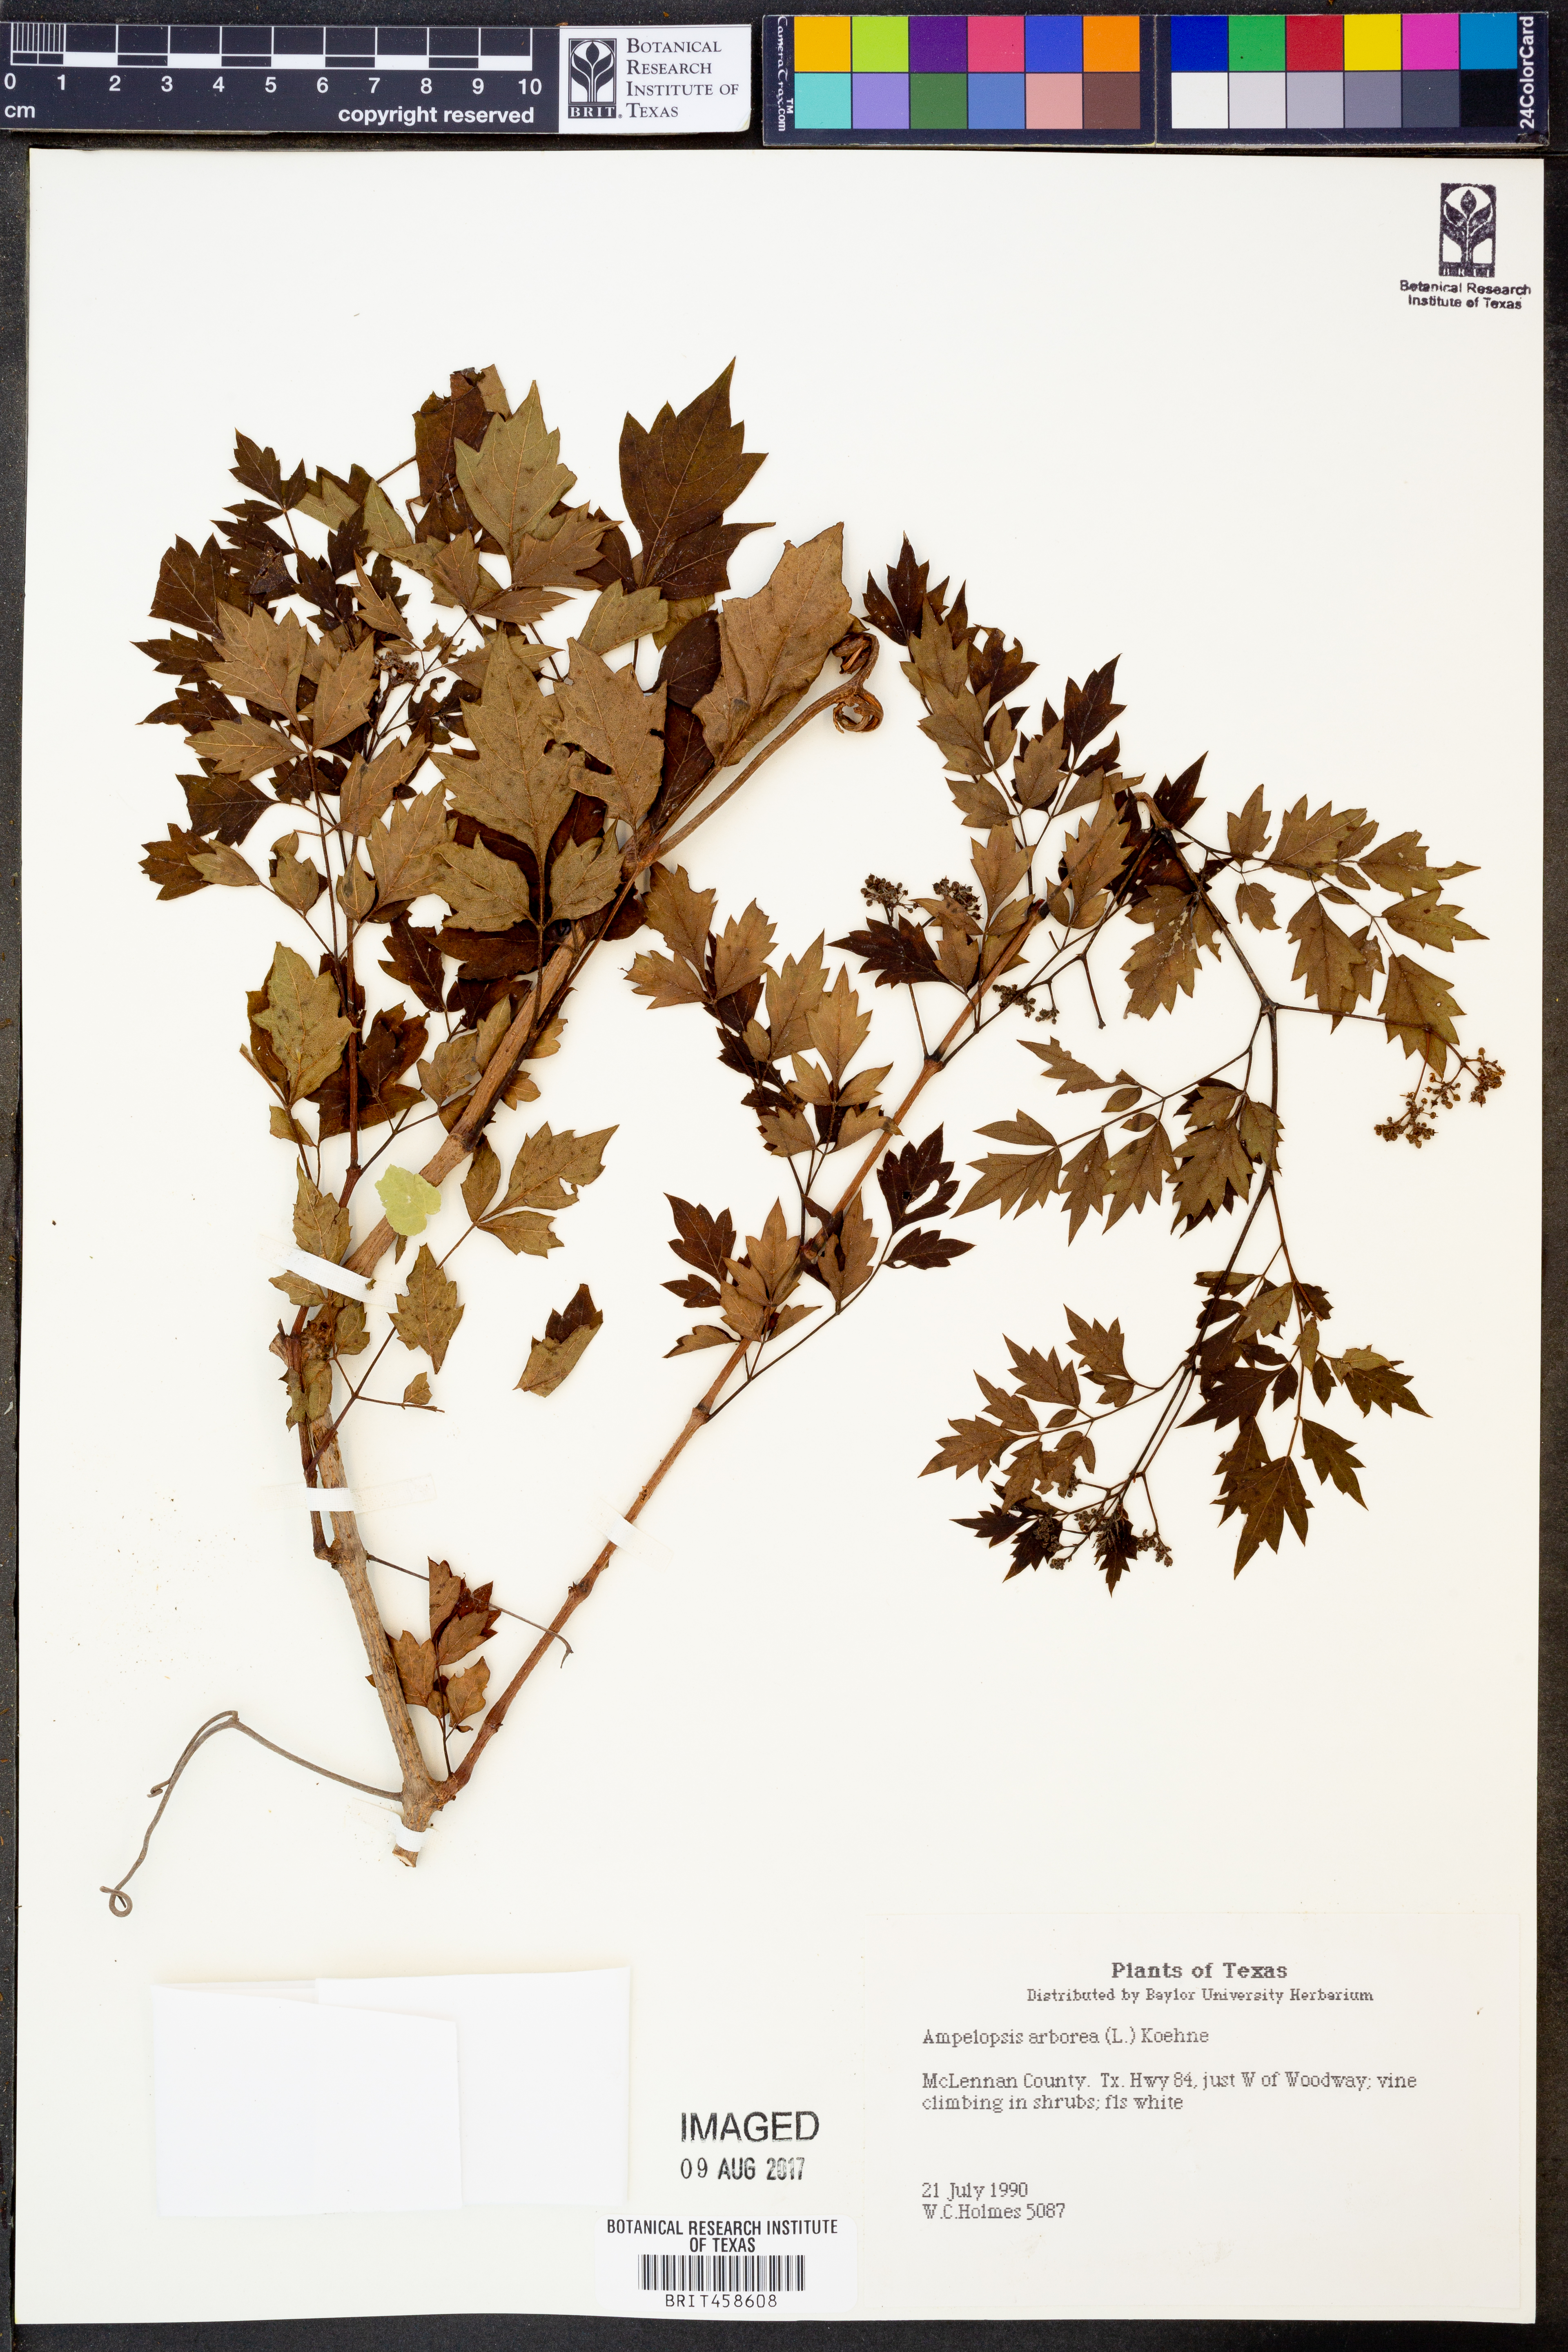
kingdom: Plantae
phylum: Tracheophyta
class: Magnoliopsida
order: Vitales
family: Vitaceae
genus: Nekemias
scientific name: Nekemias arborea
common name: Peppervine
